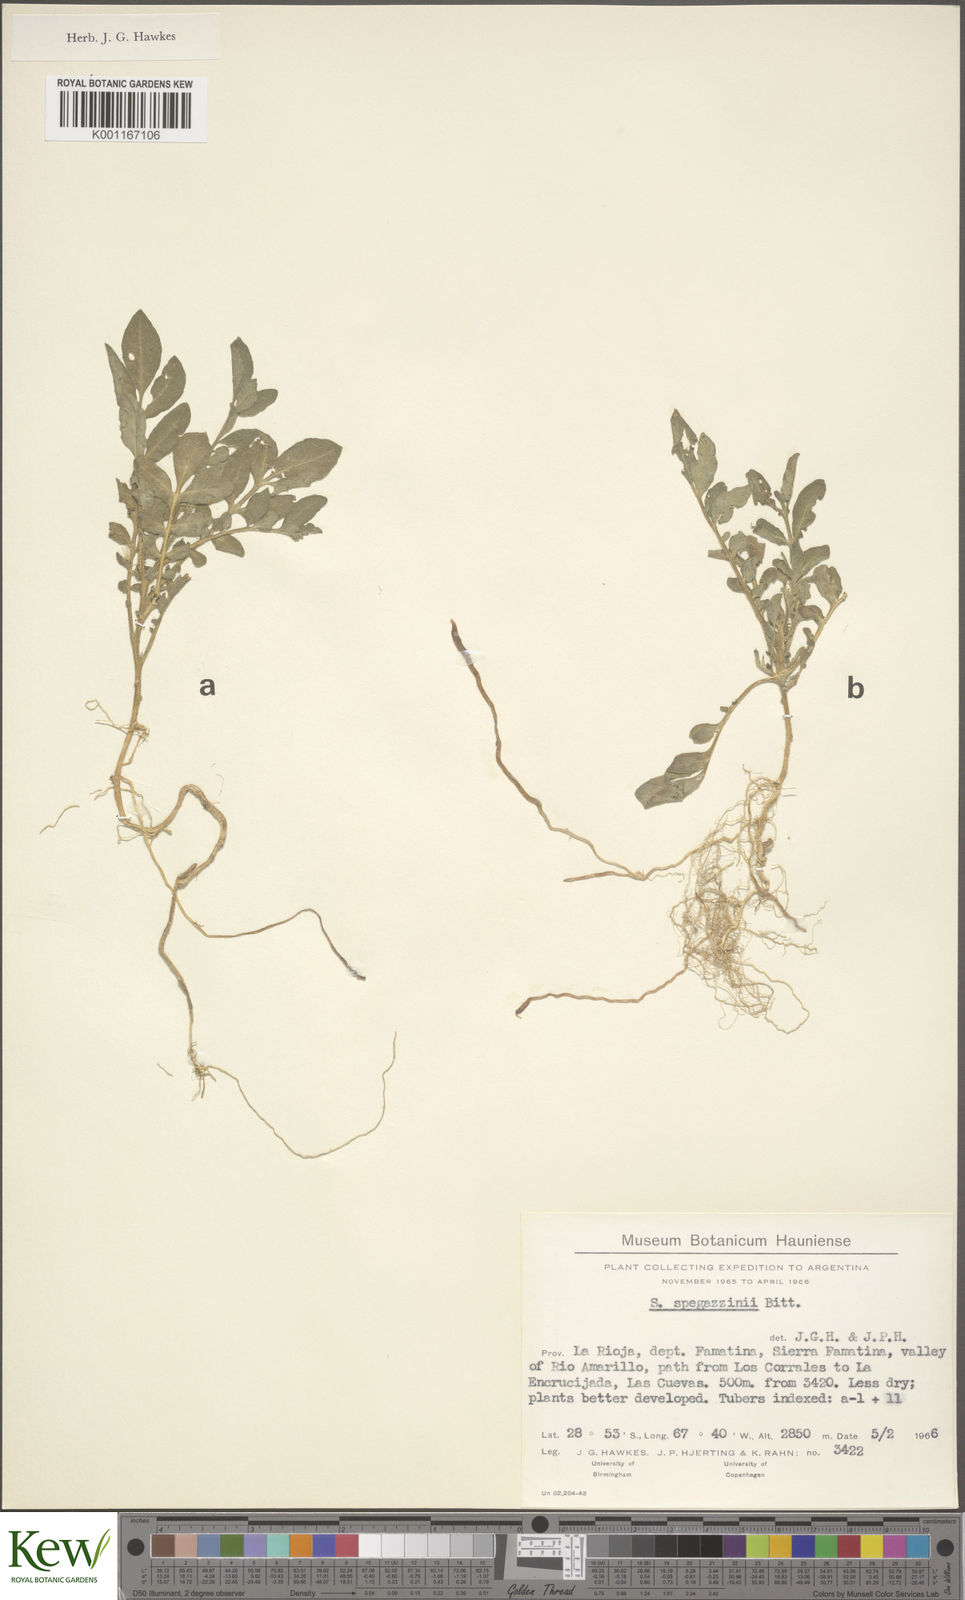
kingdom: Plantae
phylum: Tracheophyta
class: Magnoliopsida
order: Solanales
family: Solanaceae
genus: Solanum
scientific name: Solanum brevicaule
